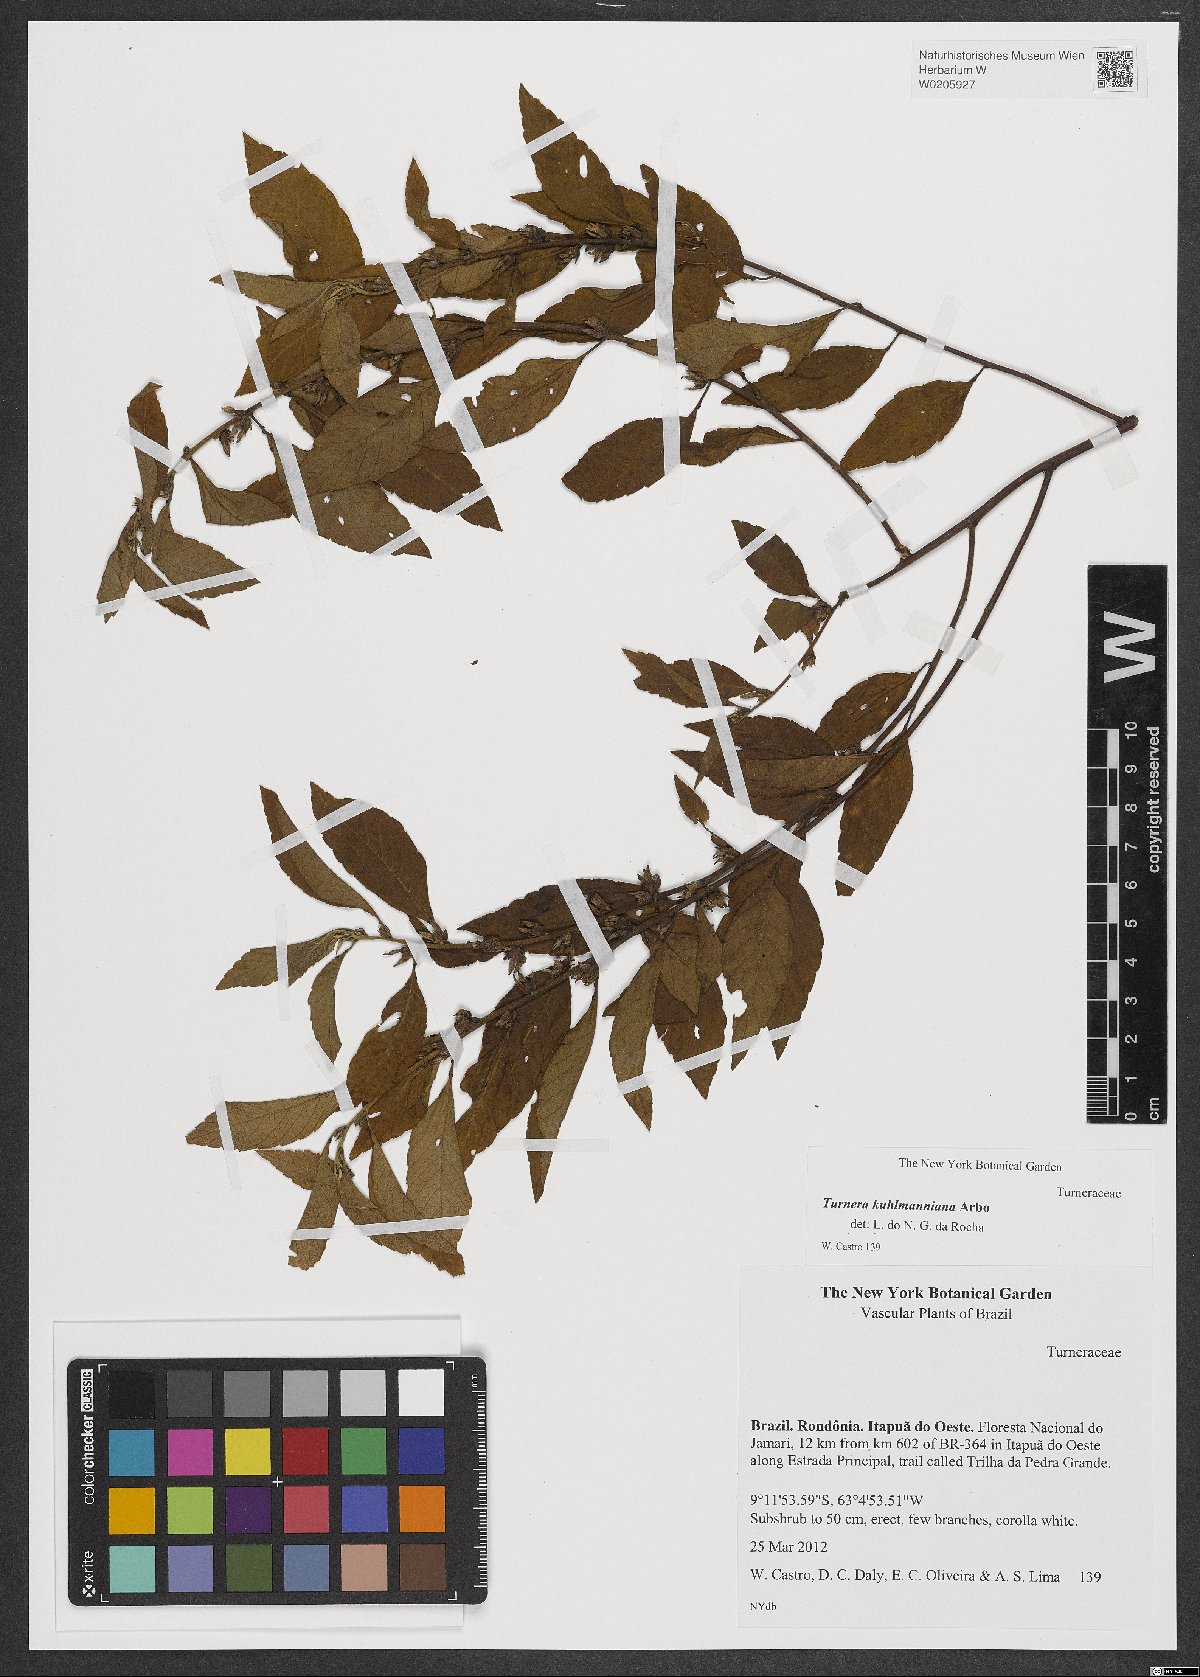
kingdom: Plantae
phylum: Tracheophyta
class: Magnoliopsida
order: Malpighiales
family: Turneraceae
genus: Turnera
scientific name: Turnera kuhlmanniana
